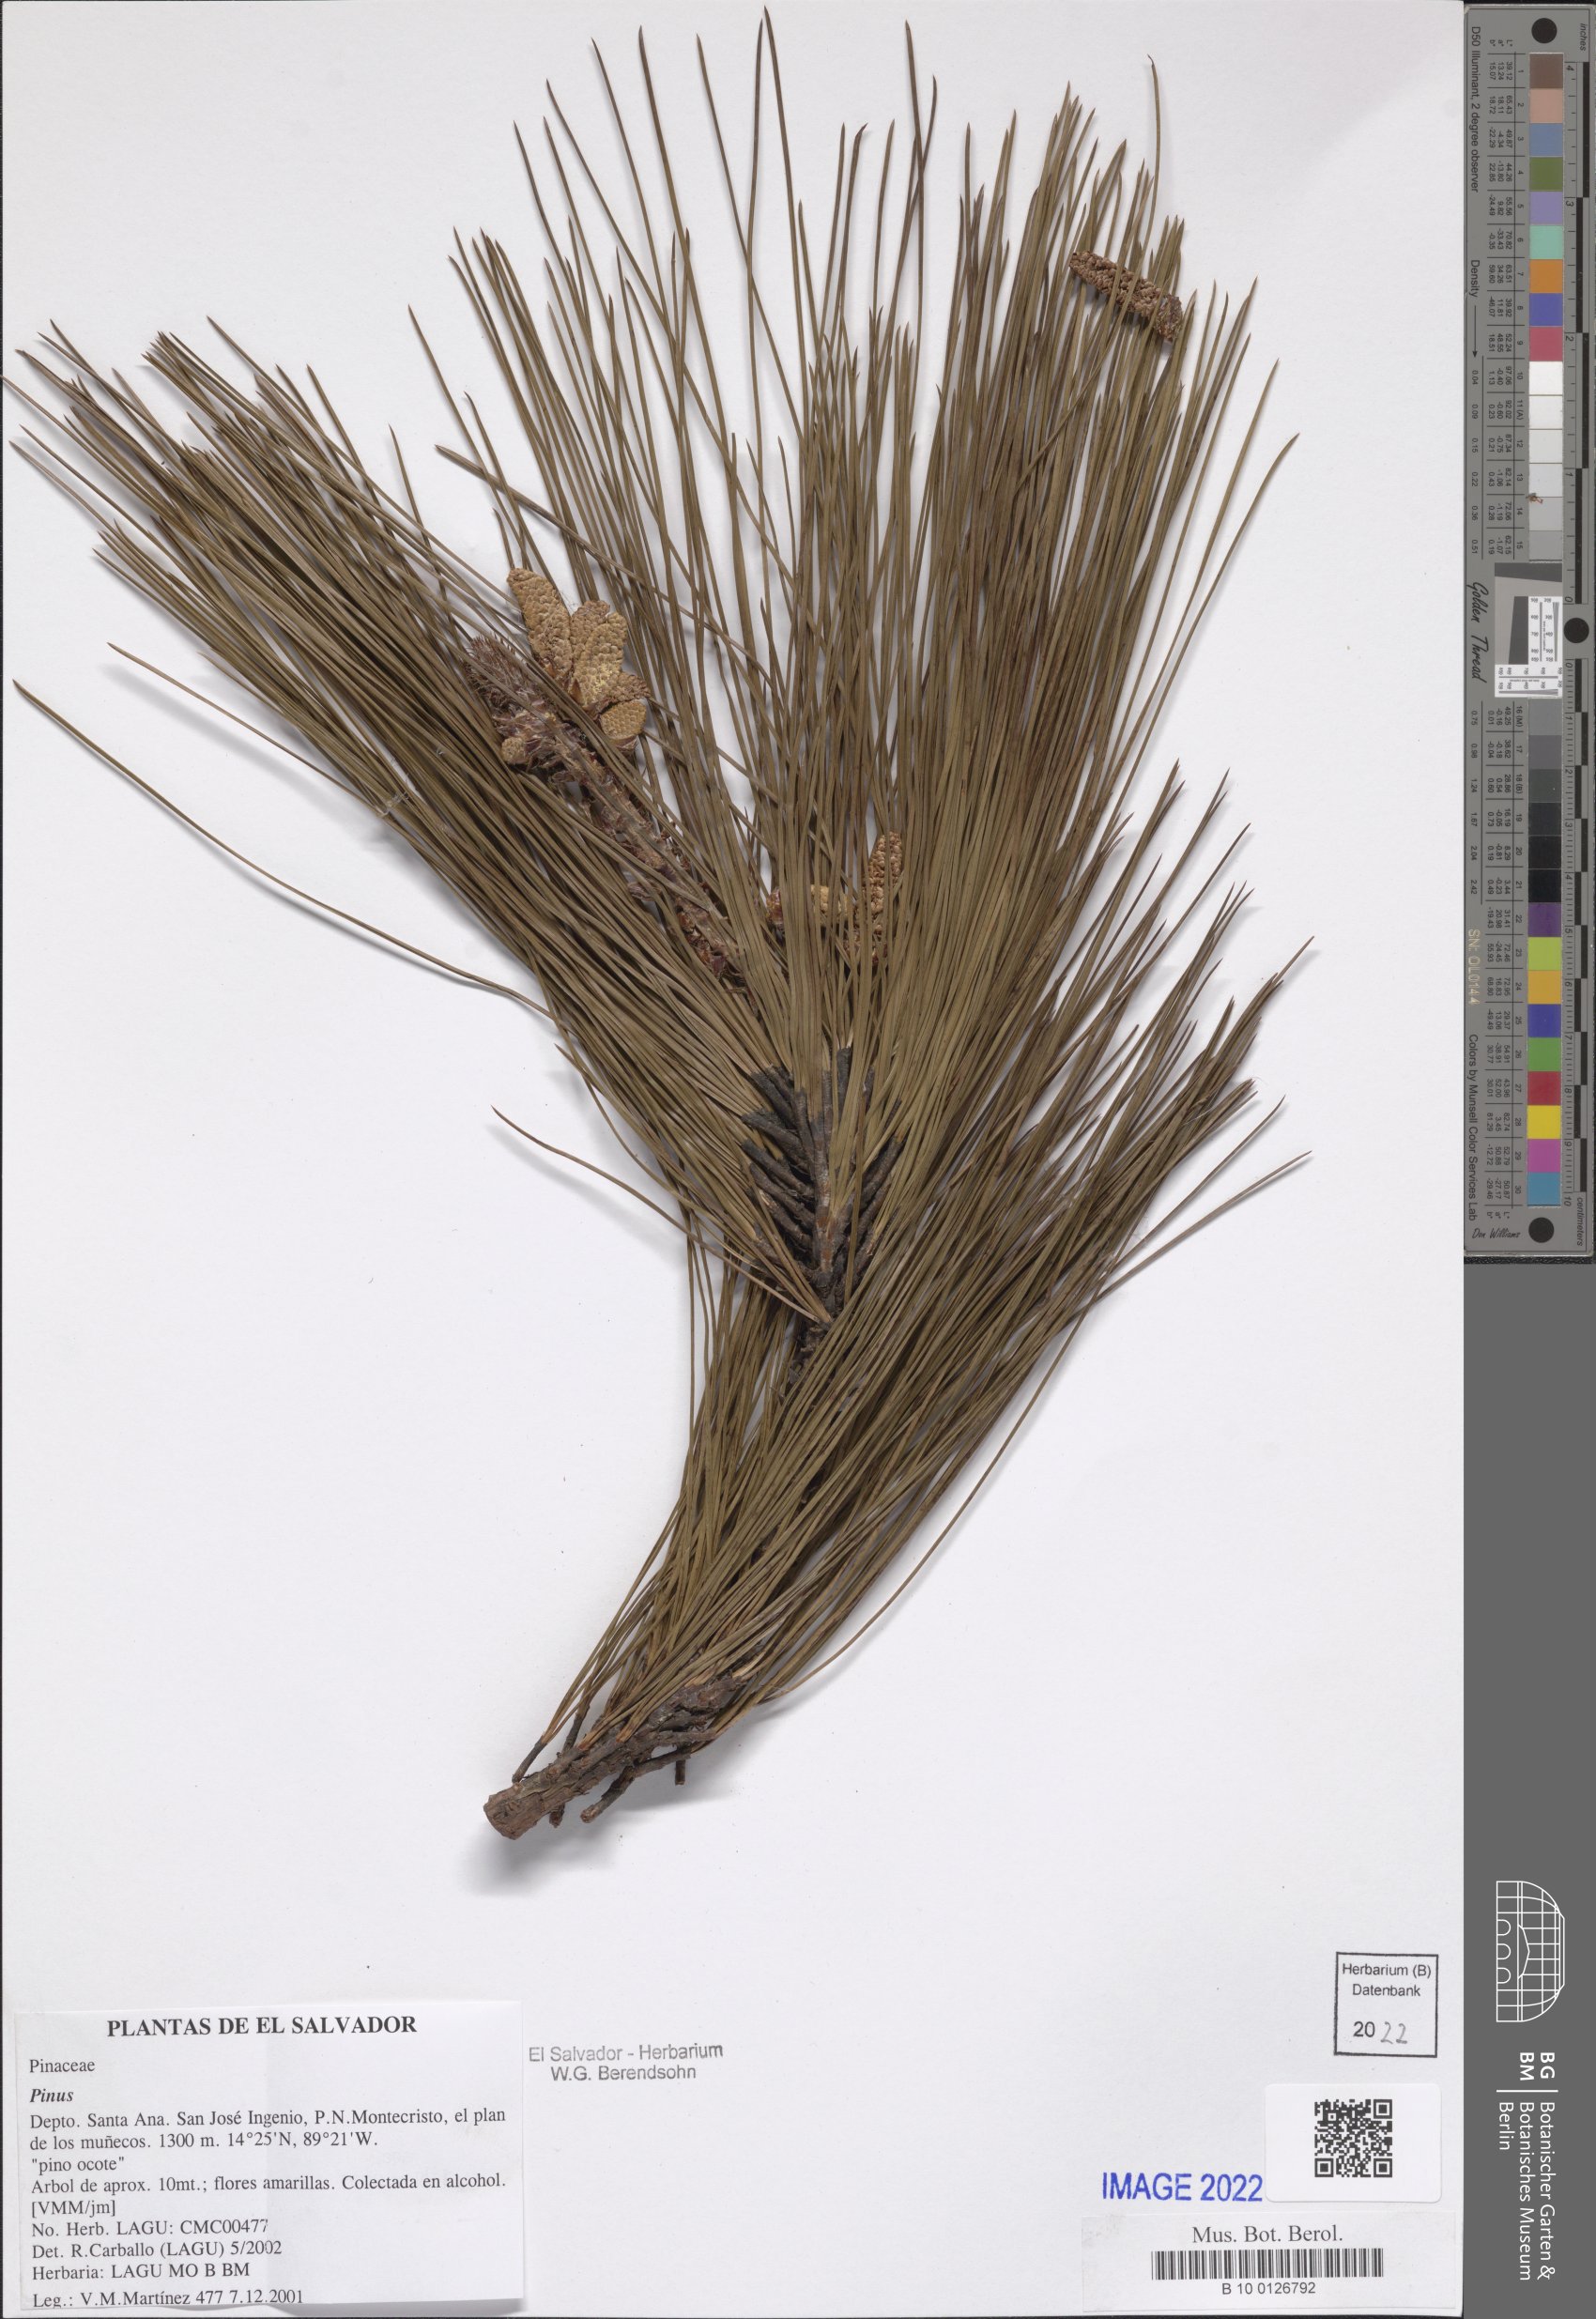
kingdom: Plantae
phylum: Tracheophyta
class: Pinopsida
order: Pinales
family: Pinaceae
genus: Pinus
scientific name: Pinus
